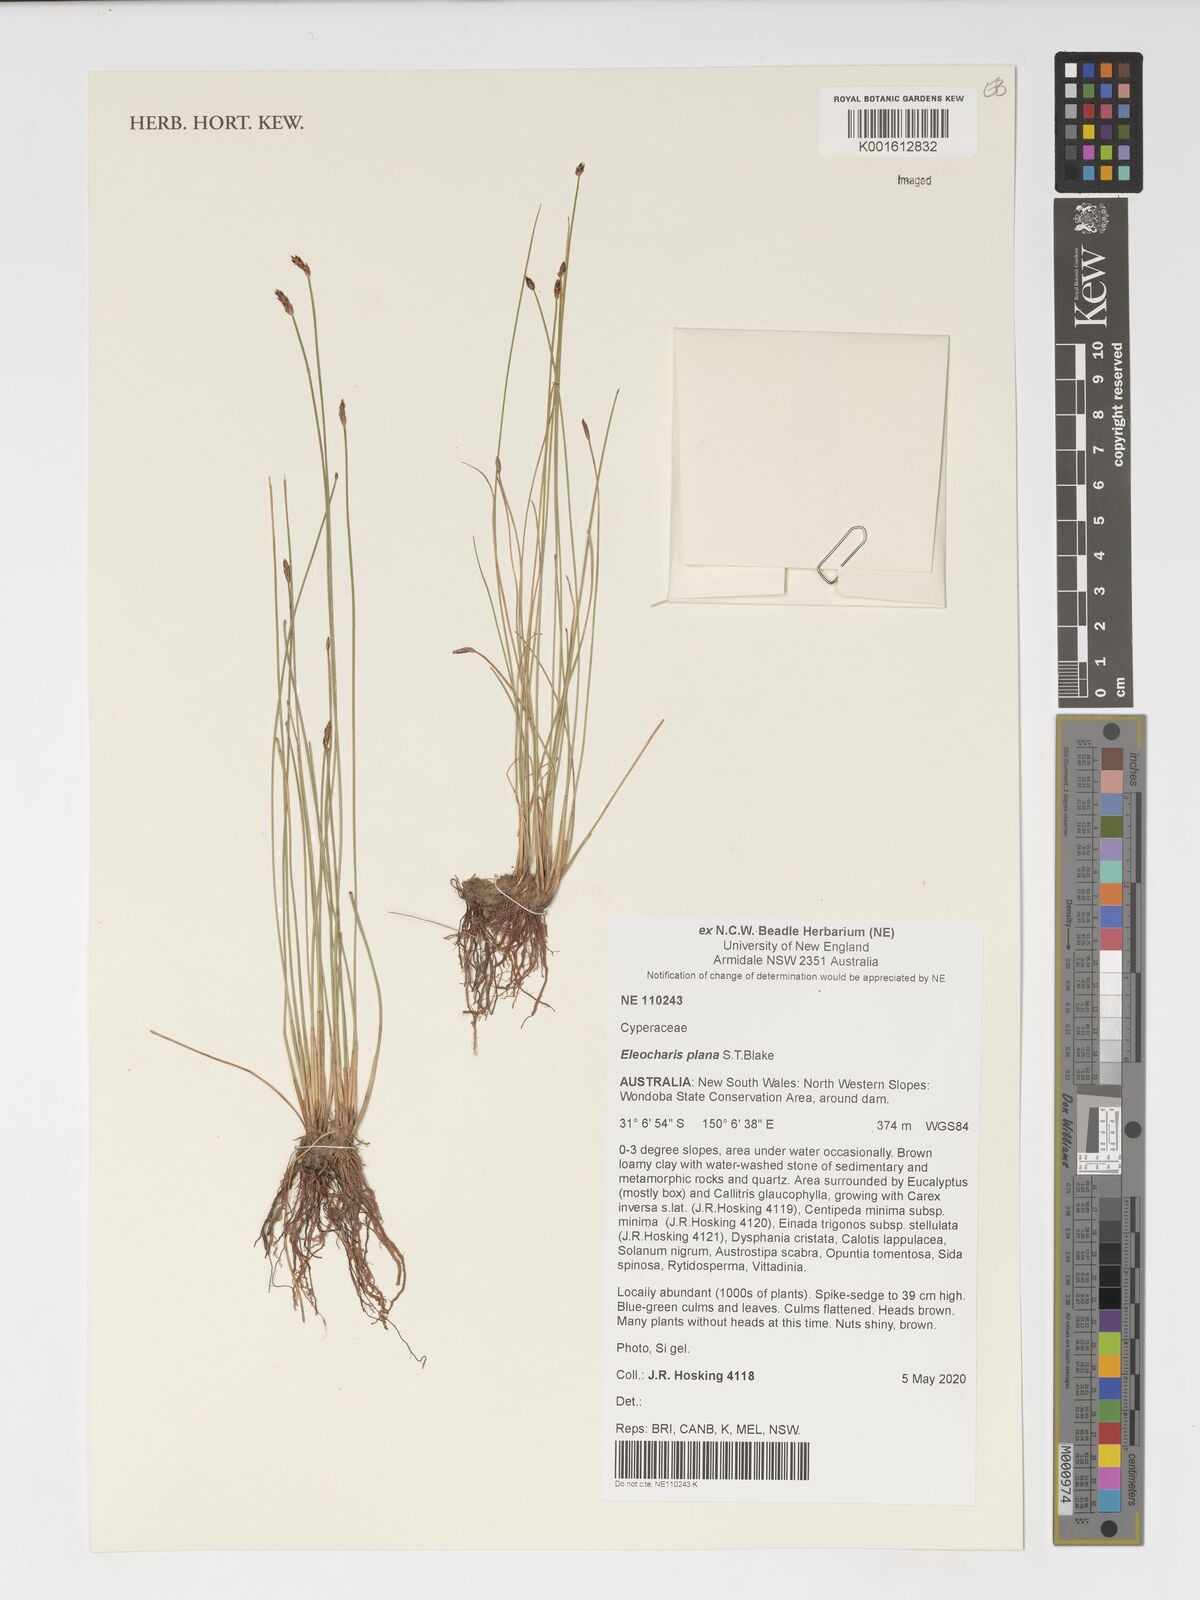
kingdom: Plantae
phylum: Tracheophyta
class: Liliopsida
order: Poales
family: Cyperaceae
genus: Eleocharis
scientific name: Eleocharis plana
